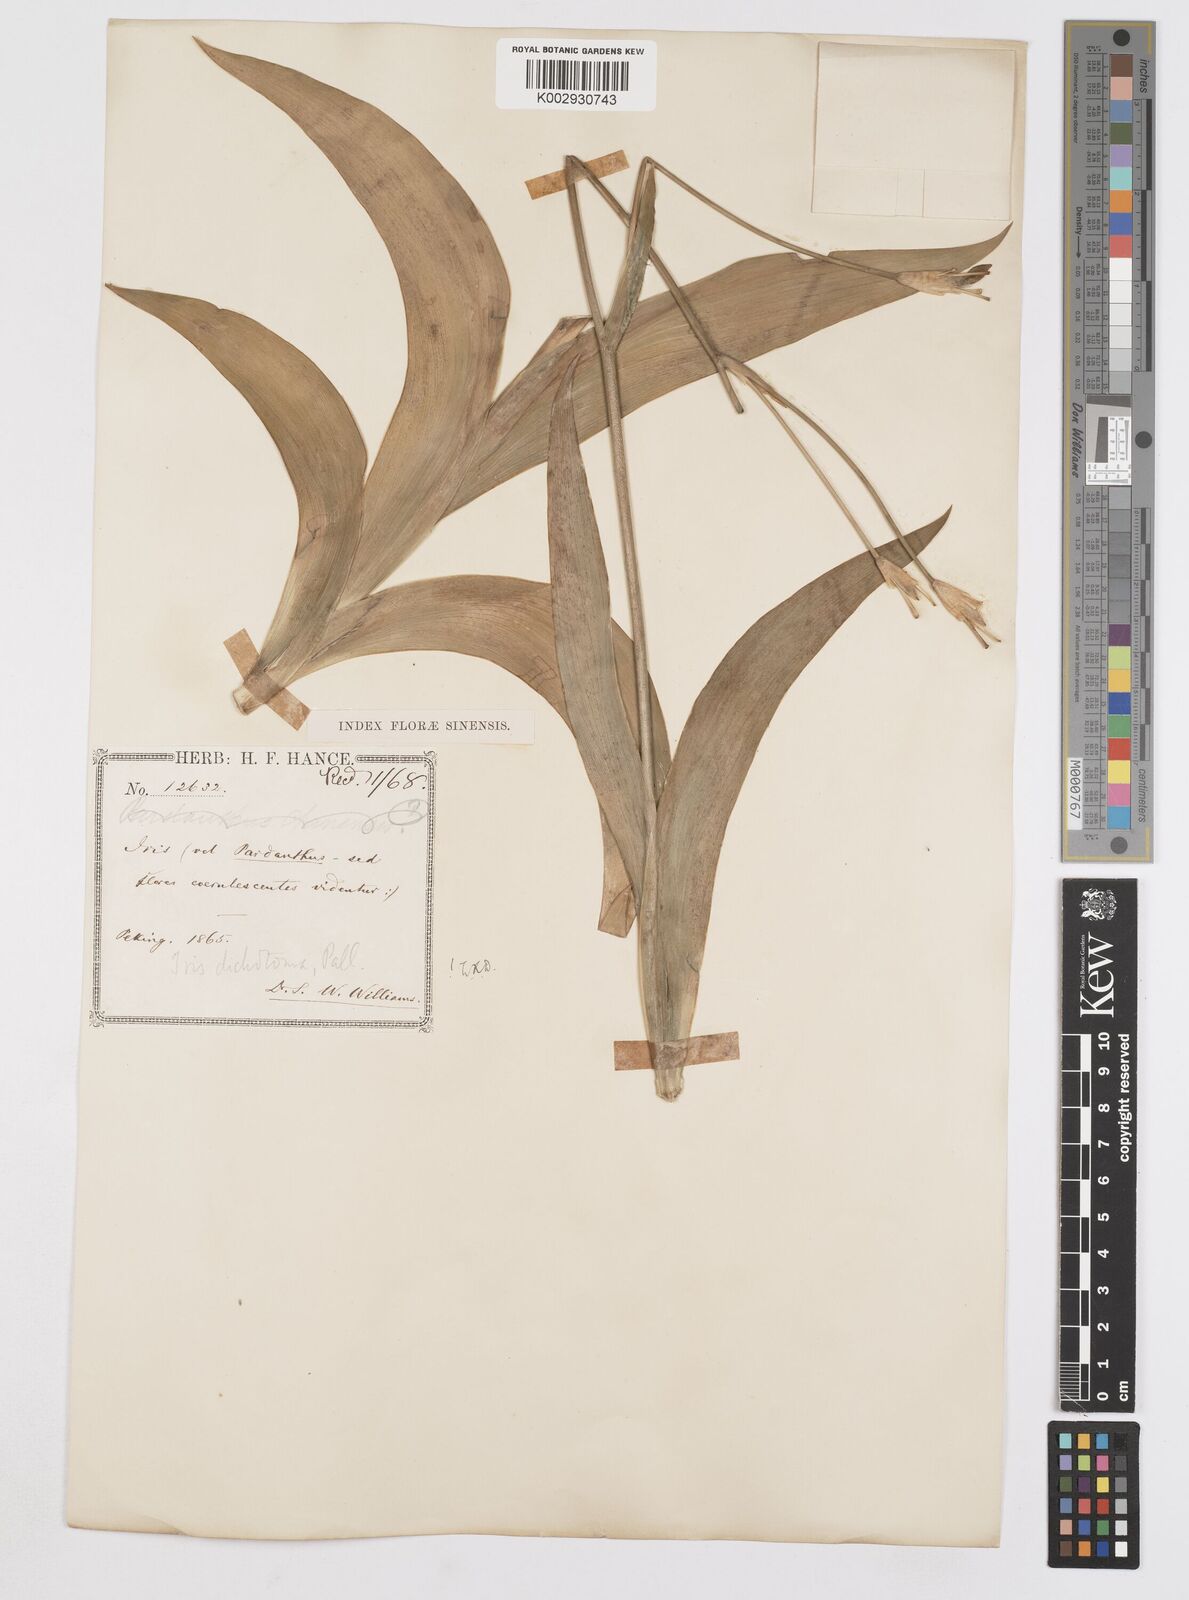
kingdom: Plantae
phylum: Tracheophyta
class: Liliopsida
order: Asparagales
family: Iridaceae
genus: Iris
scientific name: Iris dichotoma
